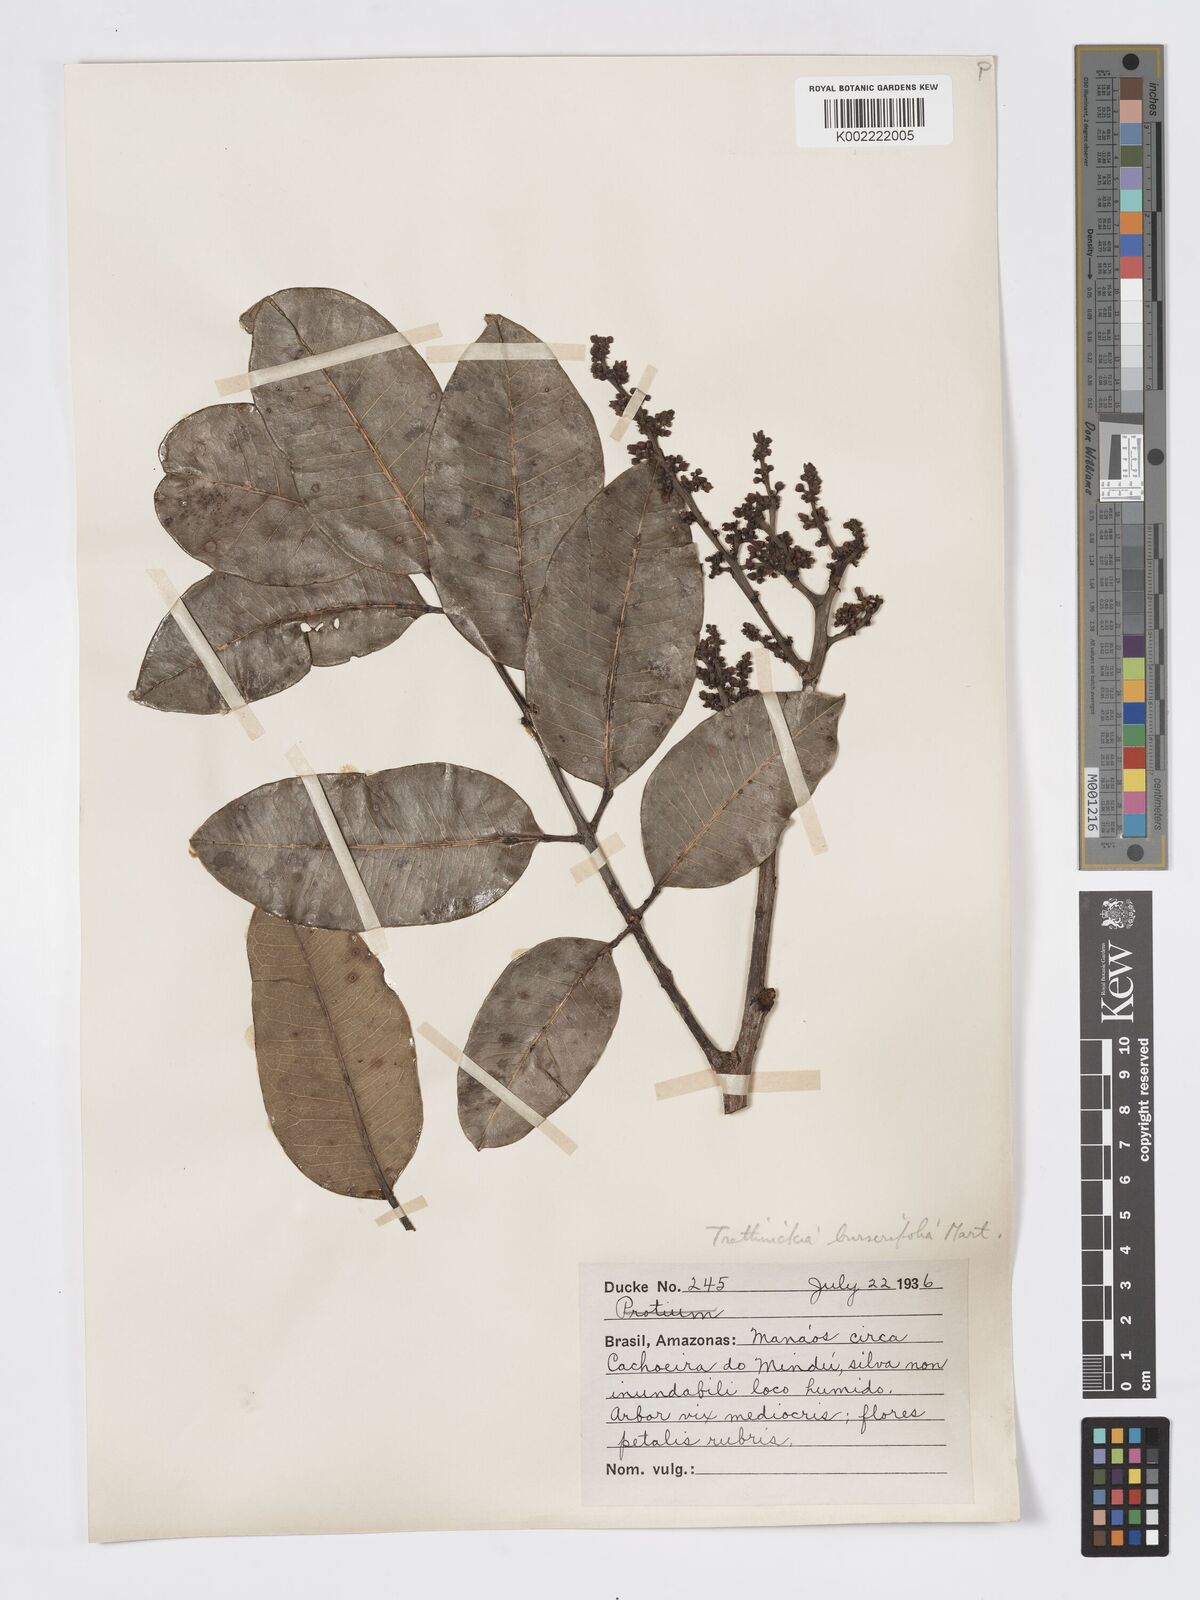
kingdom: Plantae
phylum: Tracheophyta
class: Magnoliopsida
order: Sapindales
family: Burseraceae
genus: Trattinnickia
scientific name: Trattinnickia burserifolia
